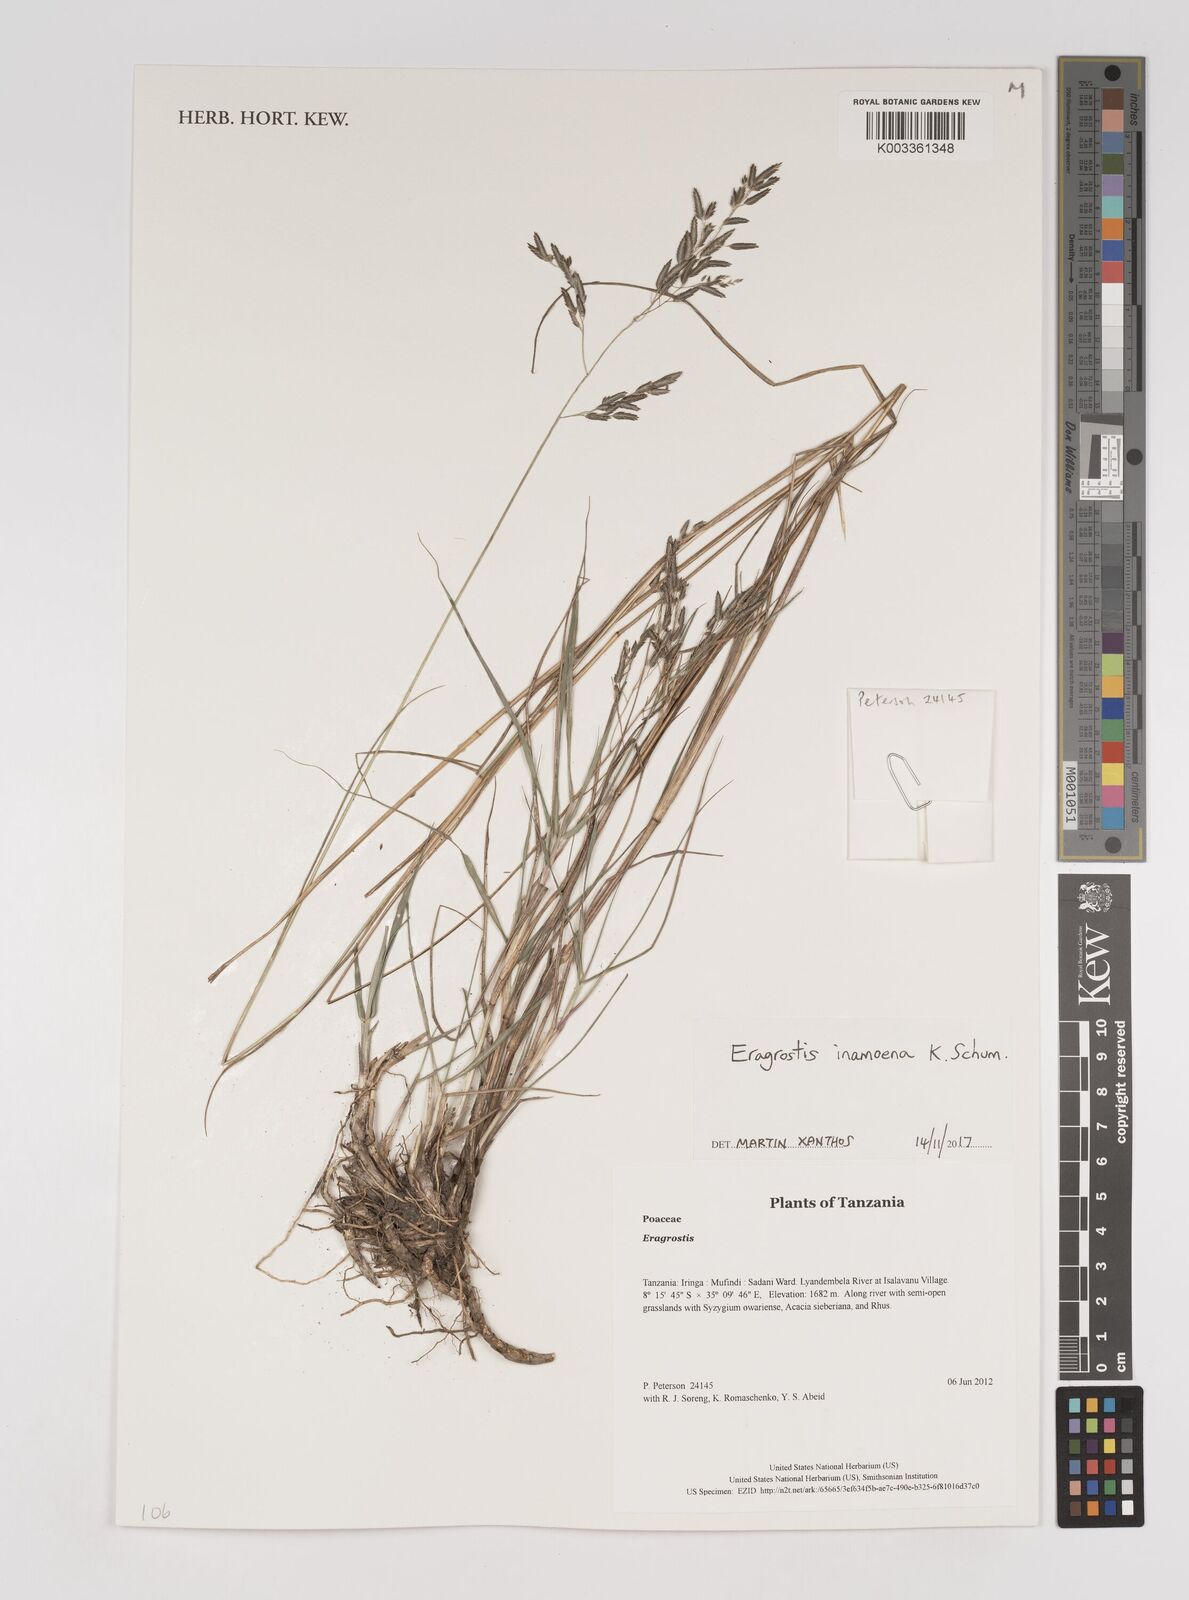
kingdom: Plantae
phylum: Tracheophyta
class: Liliopsida
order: Poales
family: Poaceae
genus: Eragrostis
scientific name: Eragrostis inamoena
